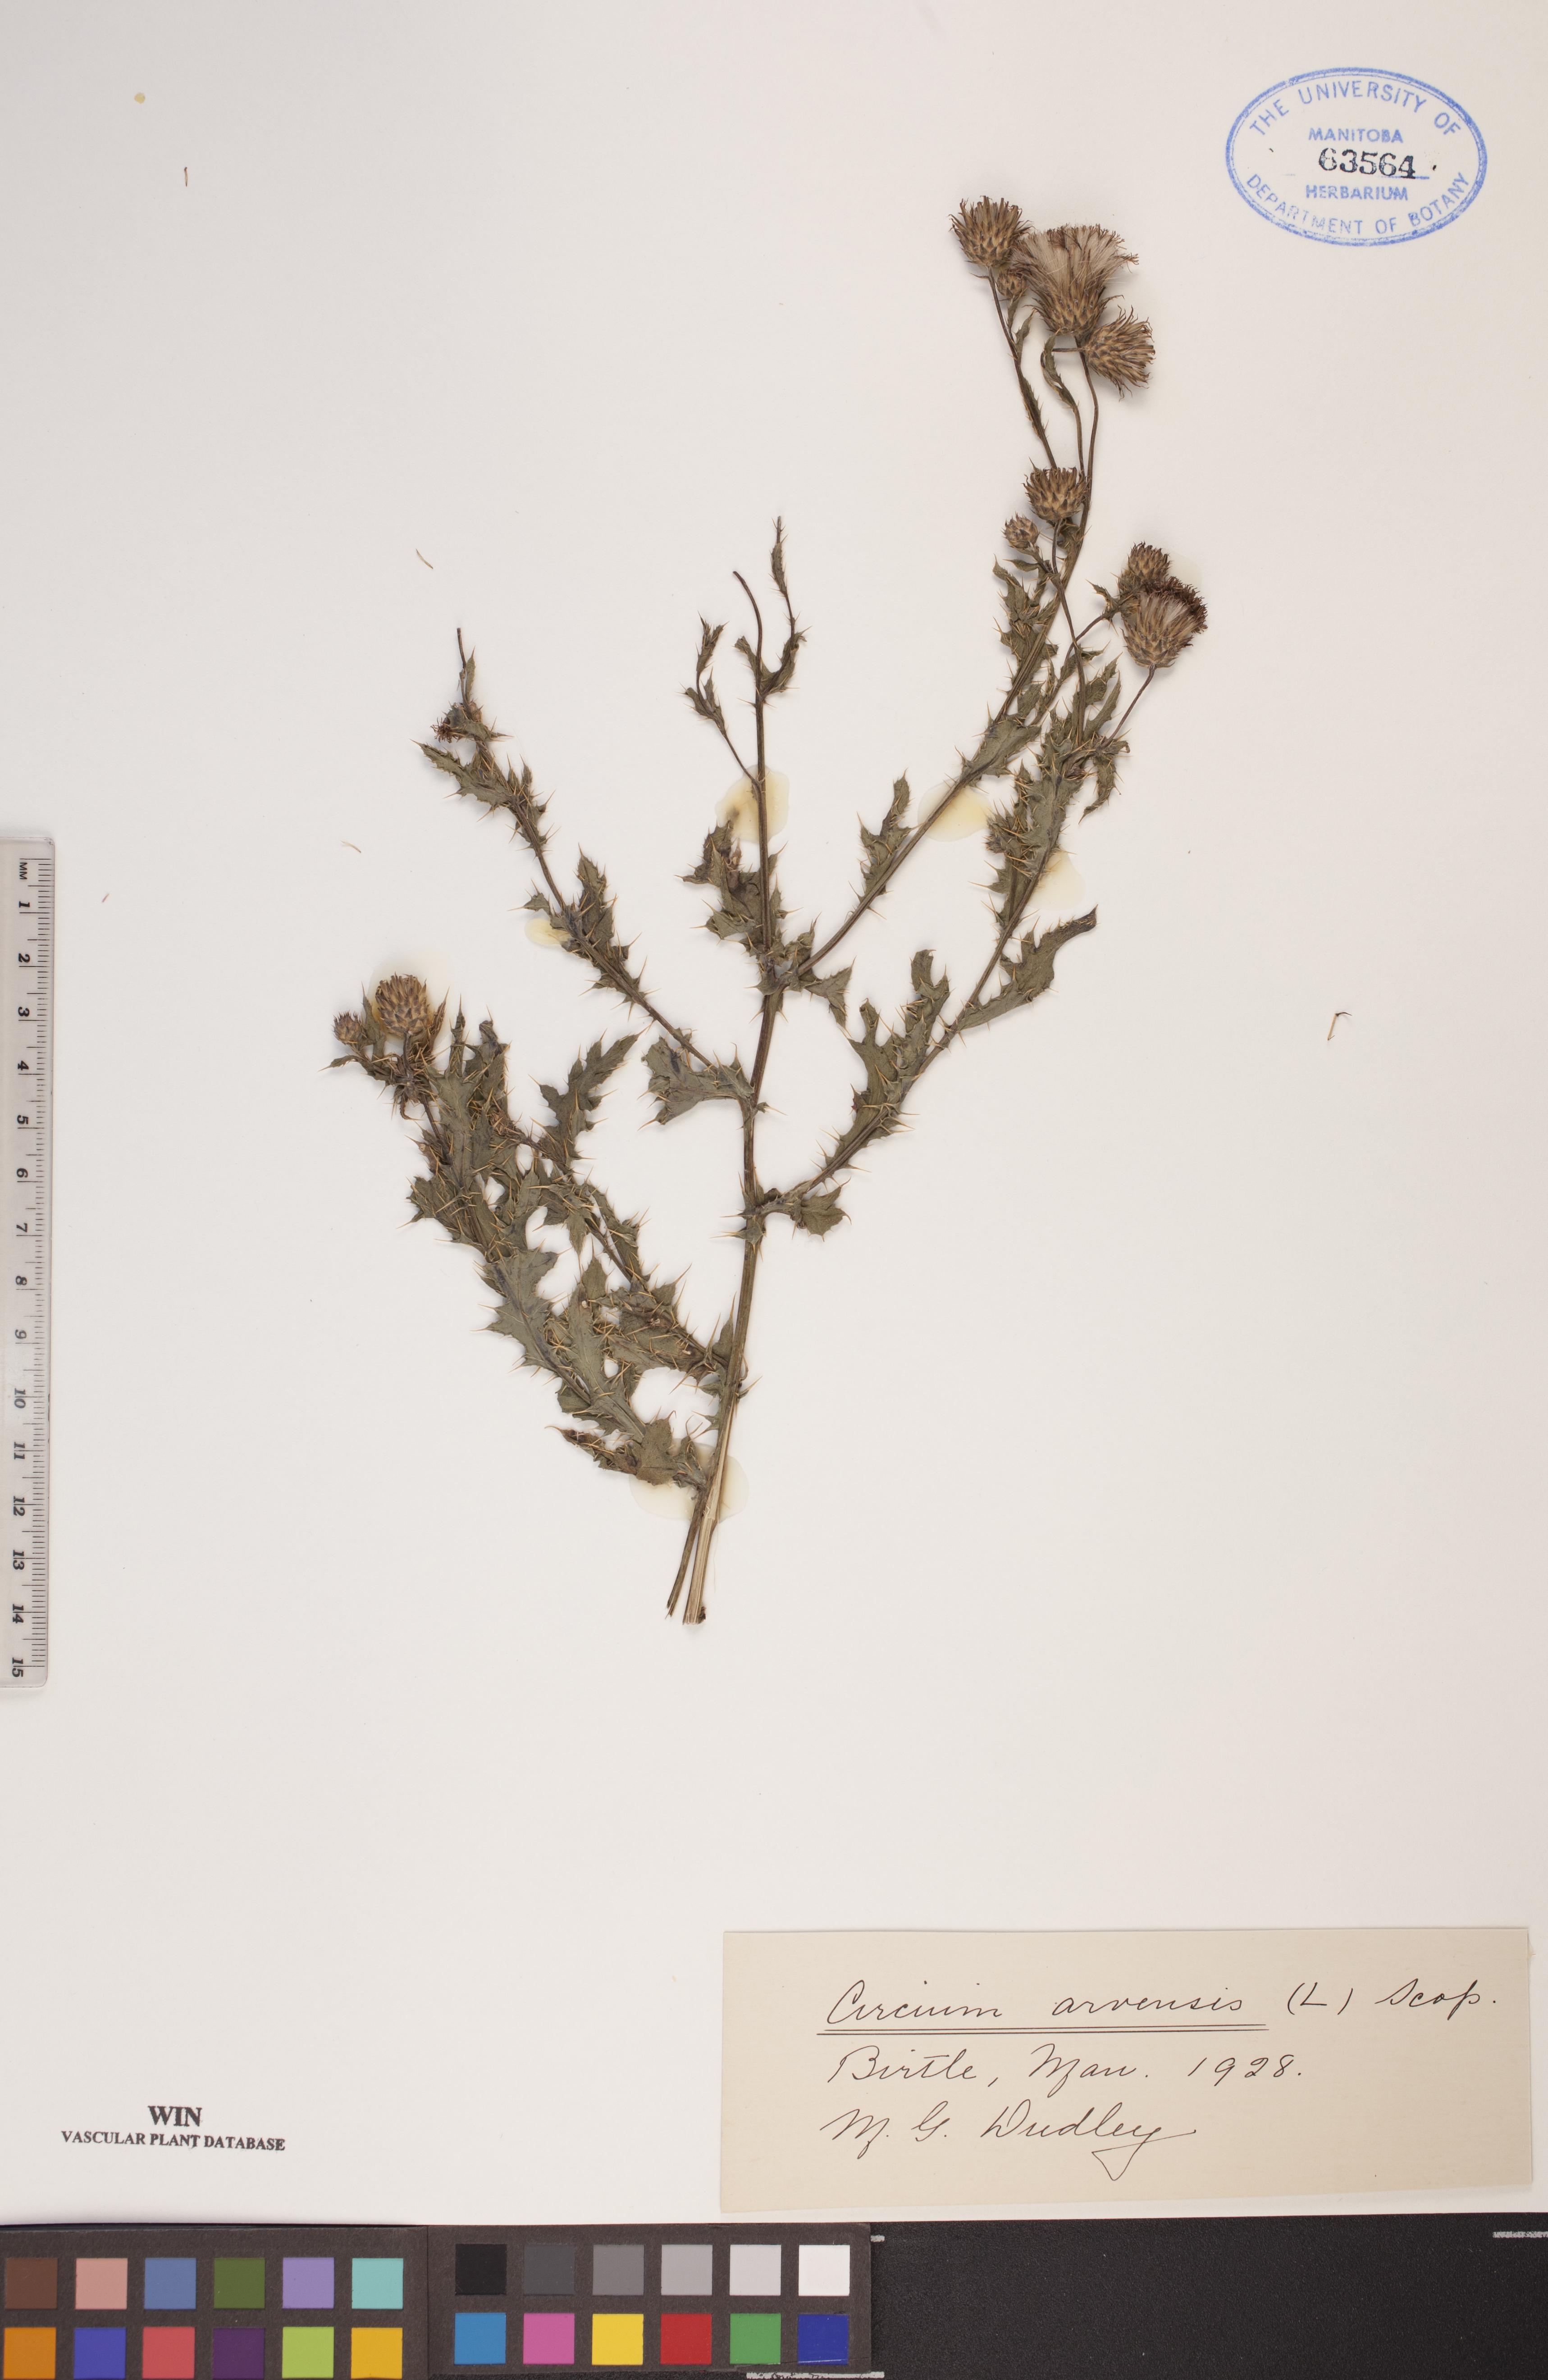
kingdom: Plantae
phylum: Tracheophyta
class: Magnoliopsida
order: Asterales
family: Asteraceae
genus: Cirsium
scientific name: Cirsium arvense
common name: Creeping thistle
